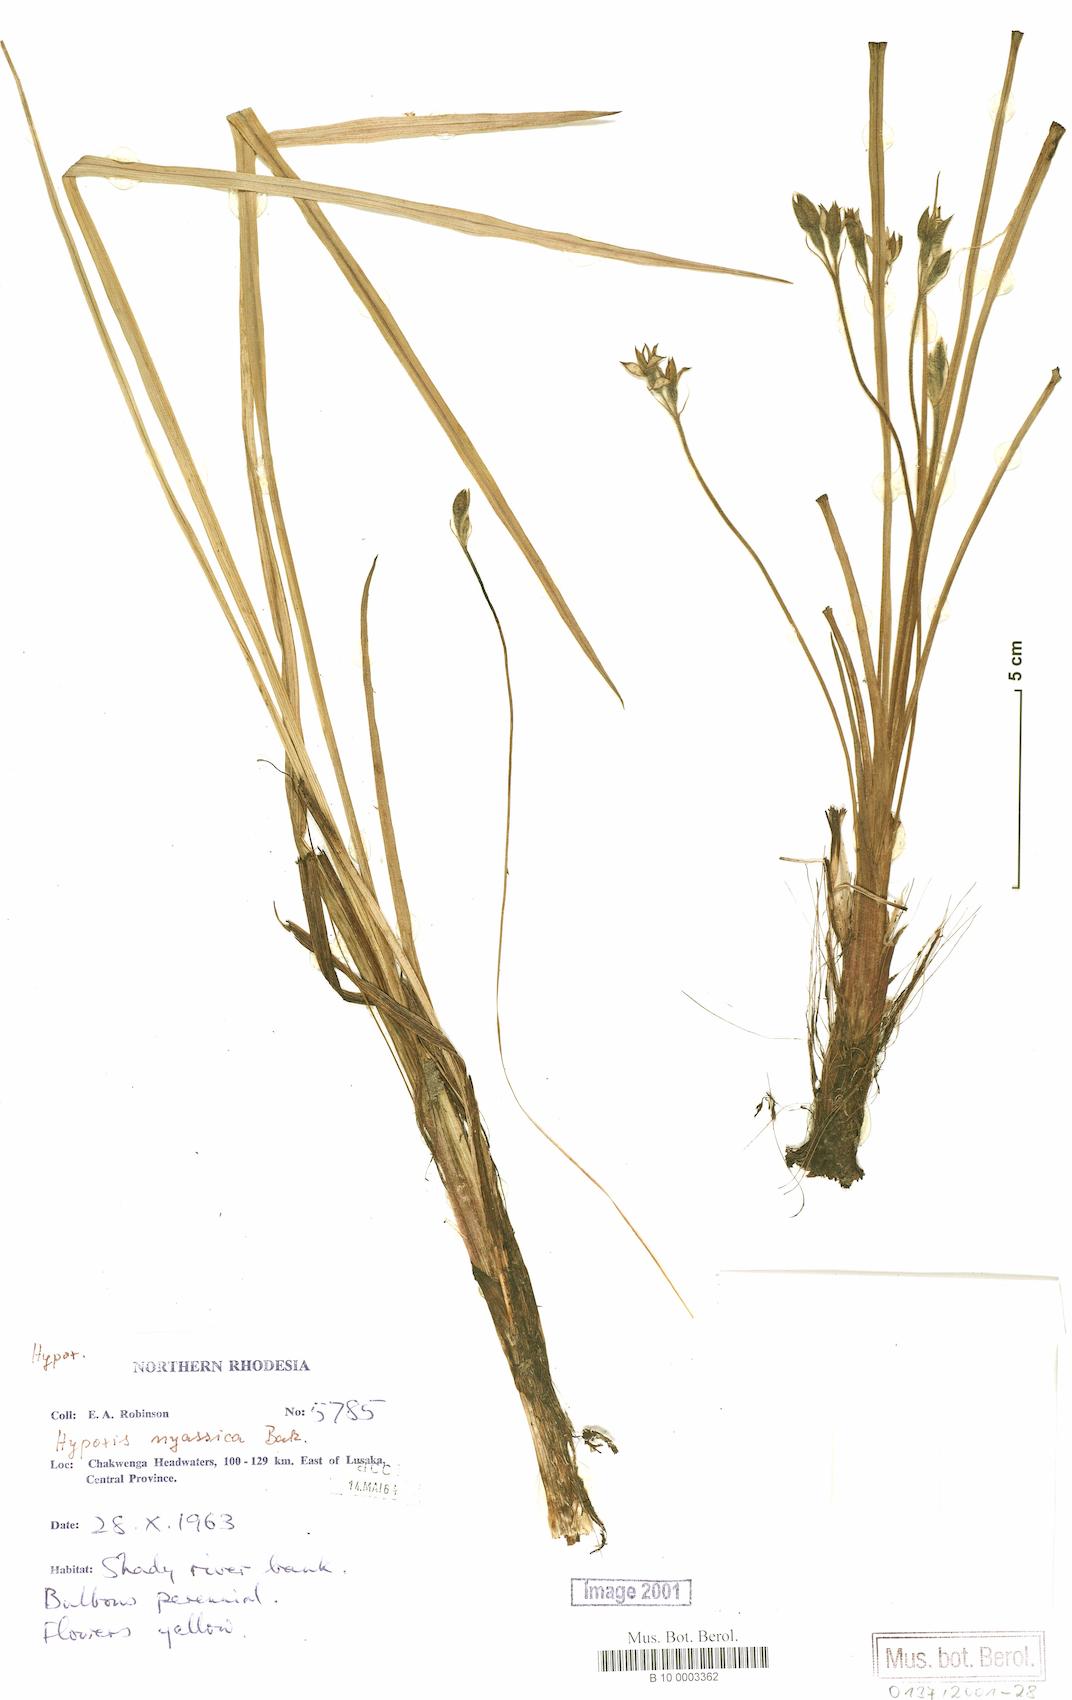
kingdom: Plantae
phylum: Tracheophyta
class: Liliopsida
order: Asparagales
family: Hypoxidaceae
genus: Hypoxis
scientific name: Hypoxis obtusa
